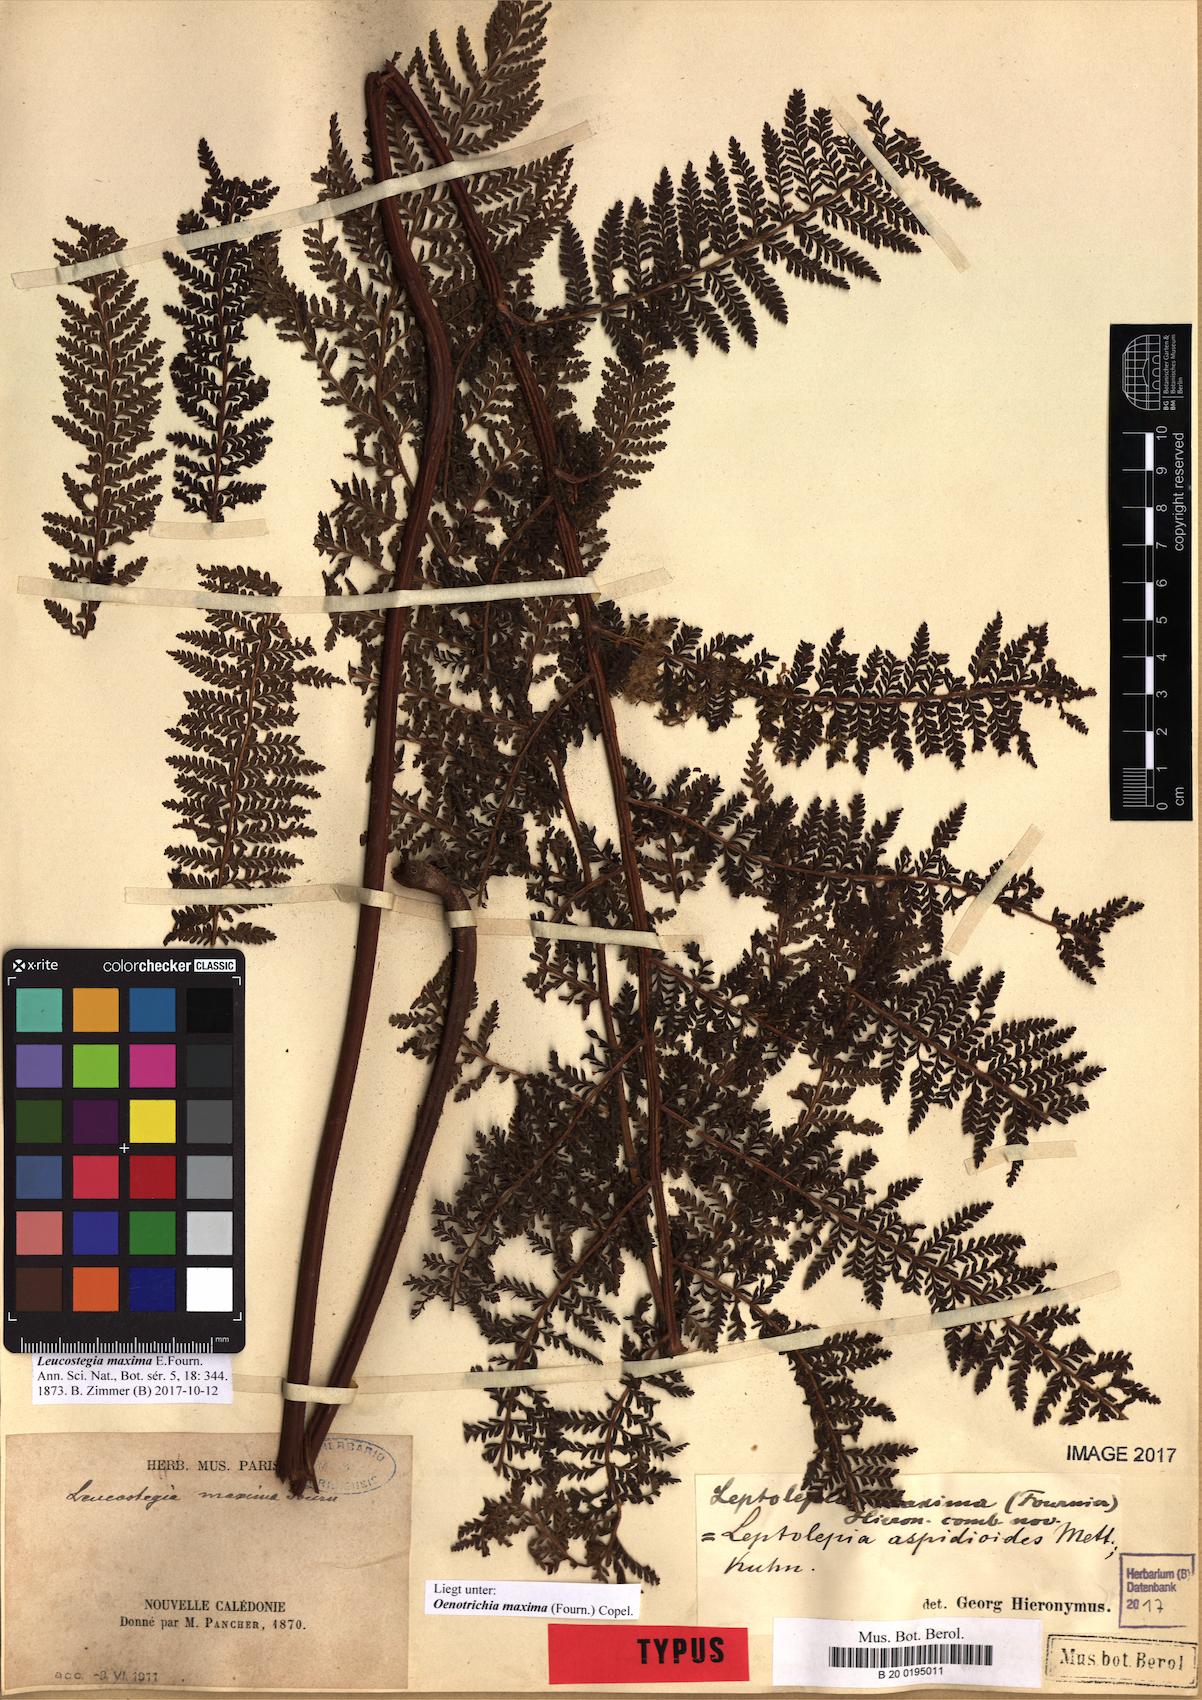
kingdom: Plantae
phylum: Tracheophyta
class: Polypodiopsida
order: Polypodiales
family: Dennstaedtiaceae
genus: Dennstaedtia
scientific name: Dennstaedtia maxima
